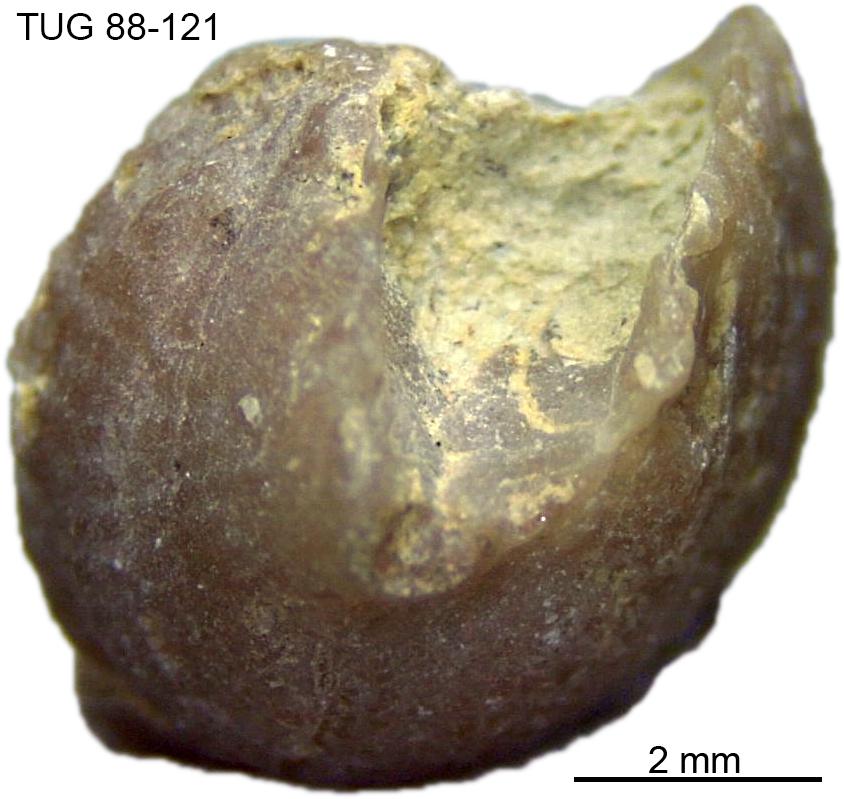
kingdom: Animalia
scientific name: Animalia
